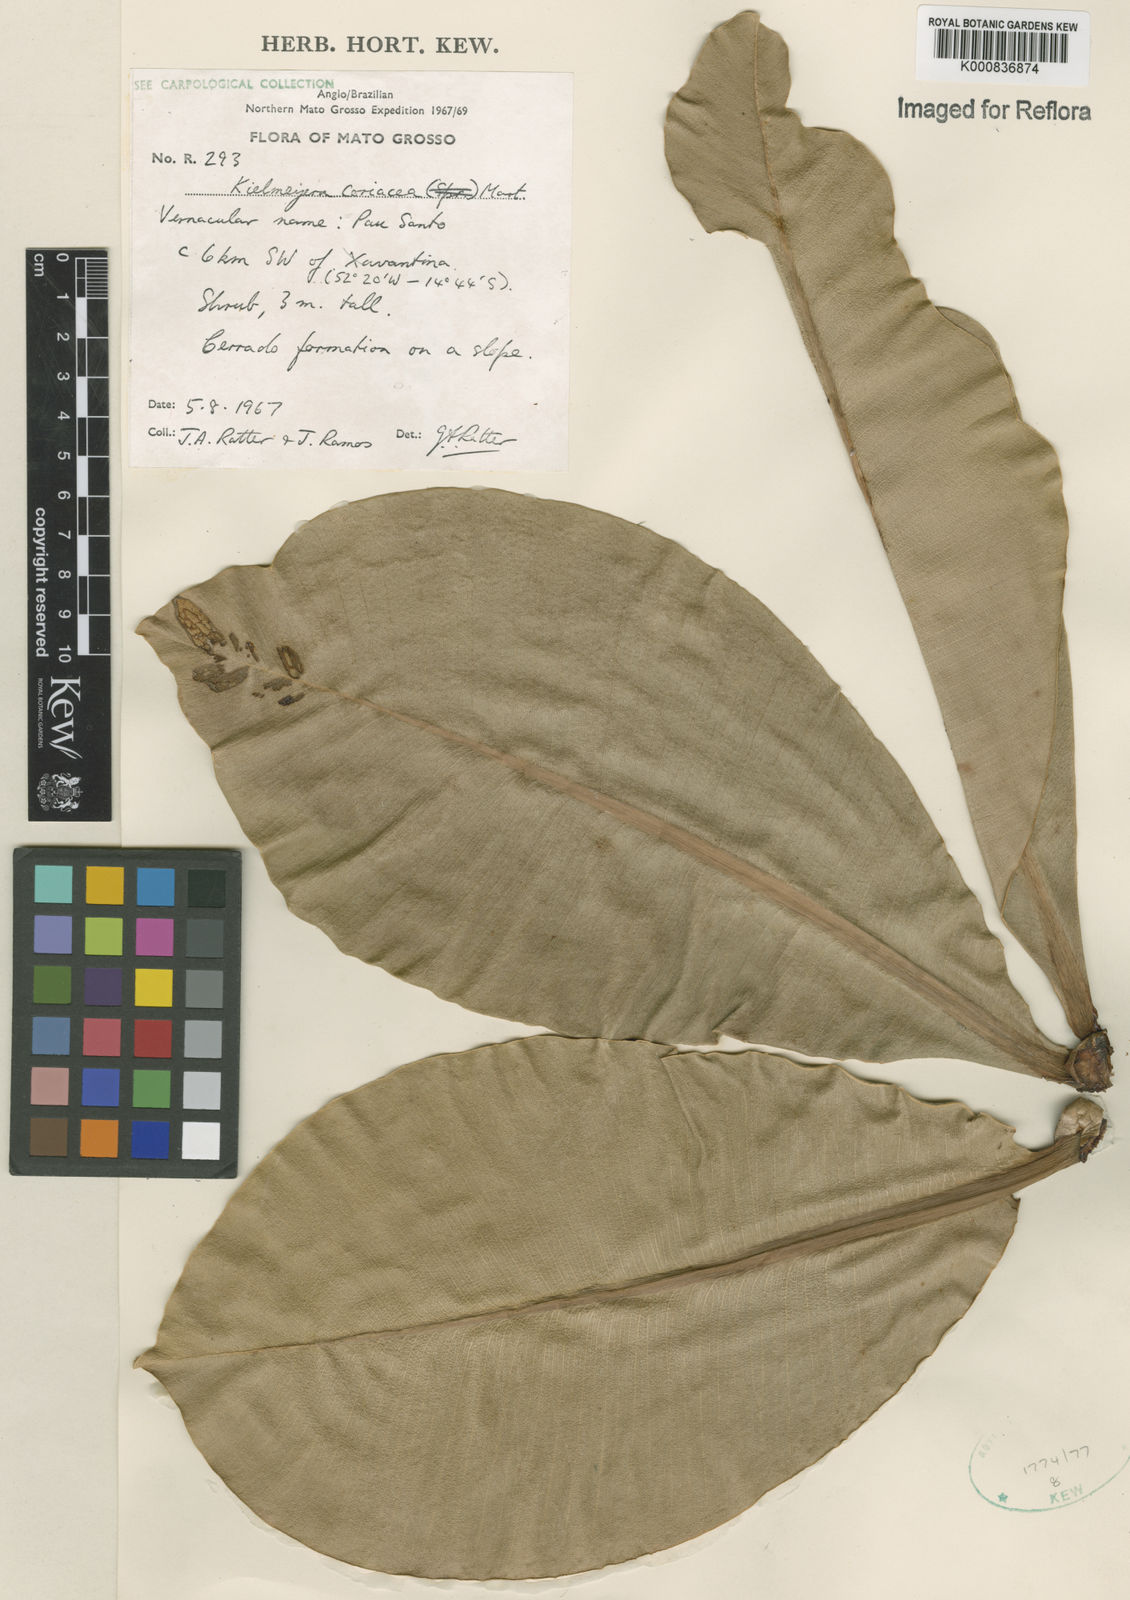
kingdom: Plantae
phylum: Tracheophyta
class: Magnoliopsida
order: Malpighiales
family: Calophyllaceae
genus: Kielmeyera
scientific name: Kielmeyera coriacea
